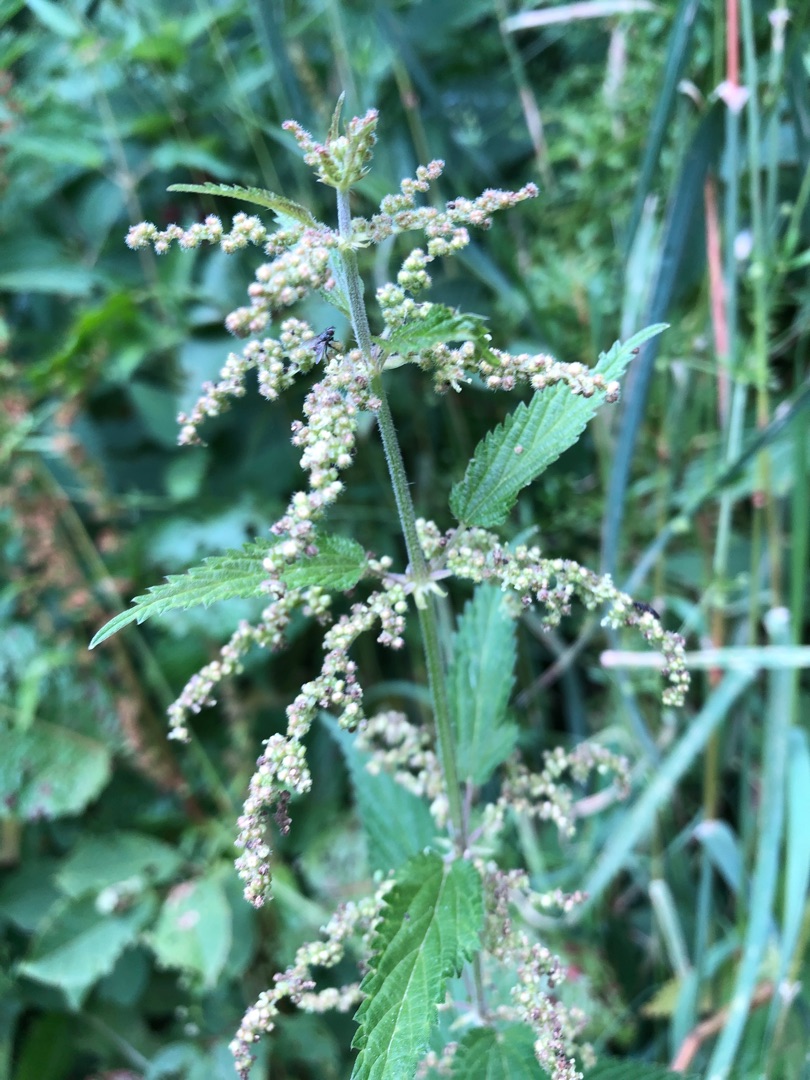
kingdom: Plantae
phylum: Tracheophyta
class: Magnoliopsida
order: Rosales
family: Urticaceae
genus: Urtica
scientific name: Urtica dioica
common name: Stor nælde
